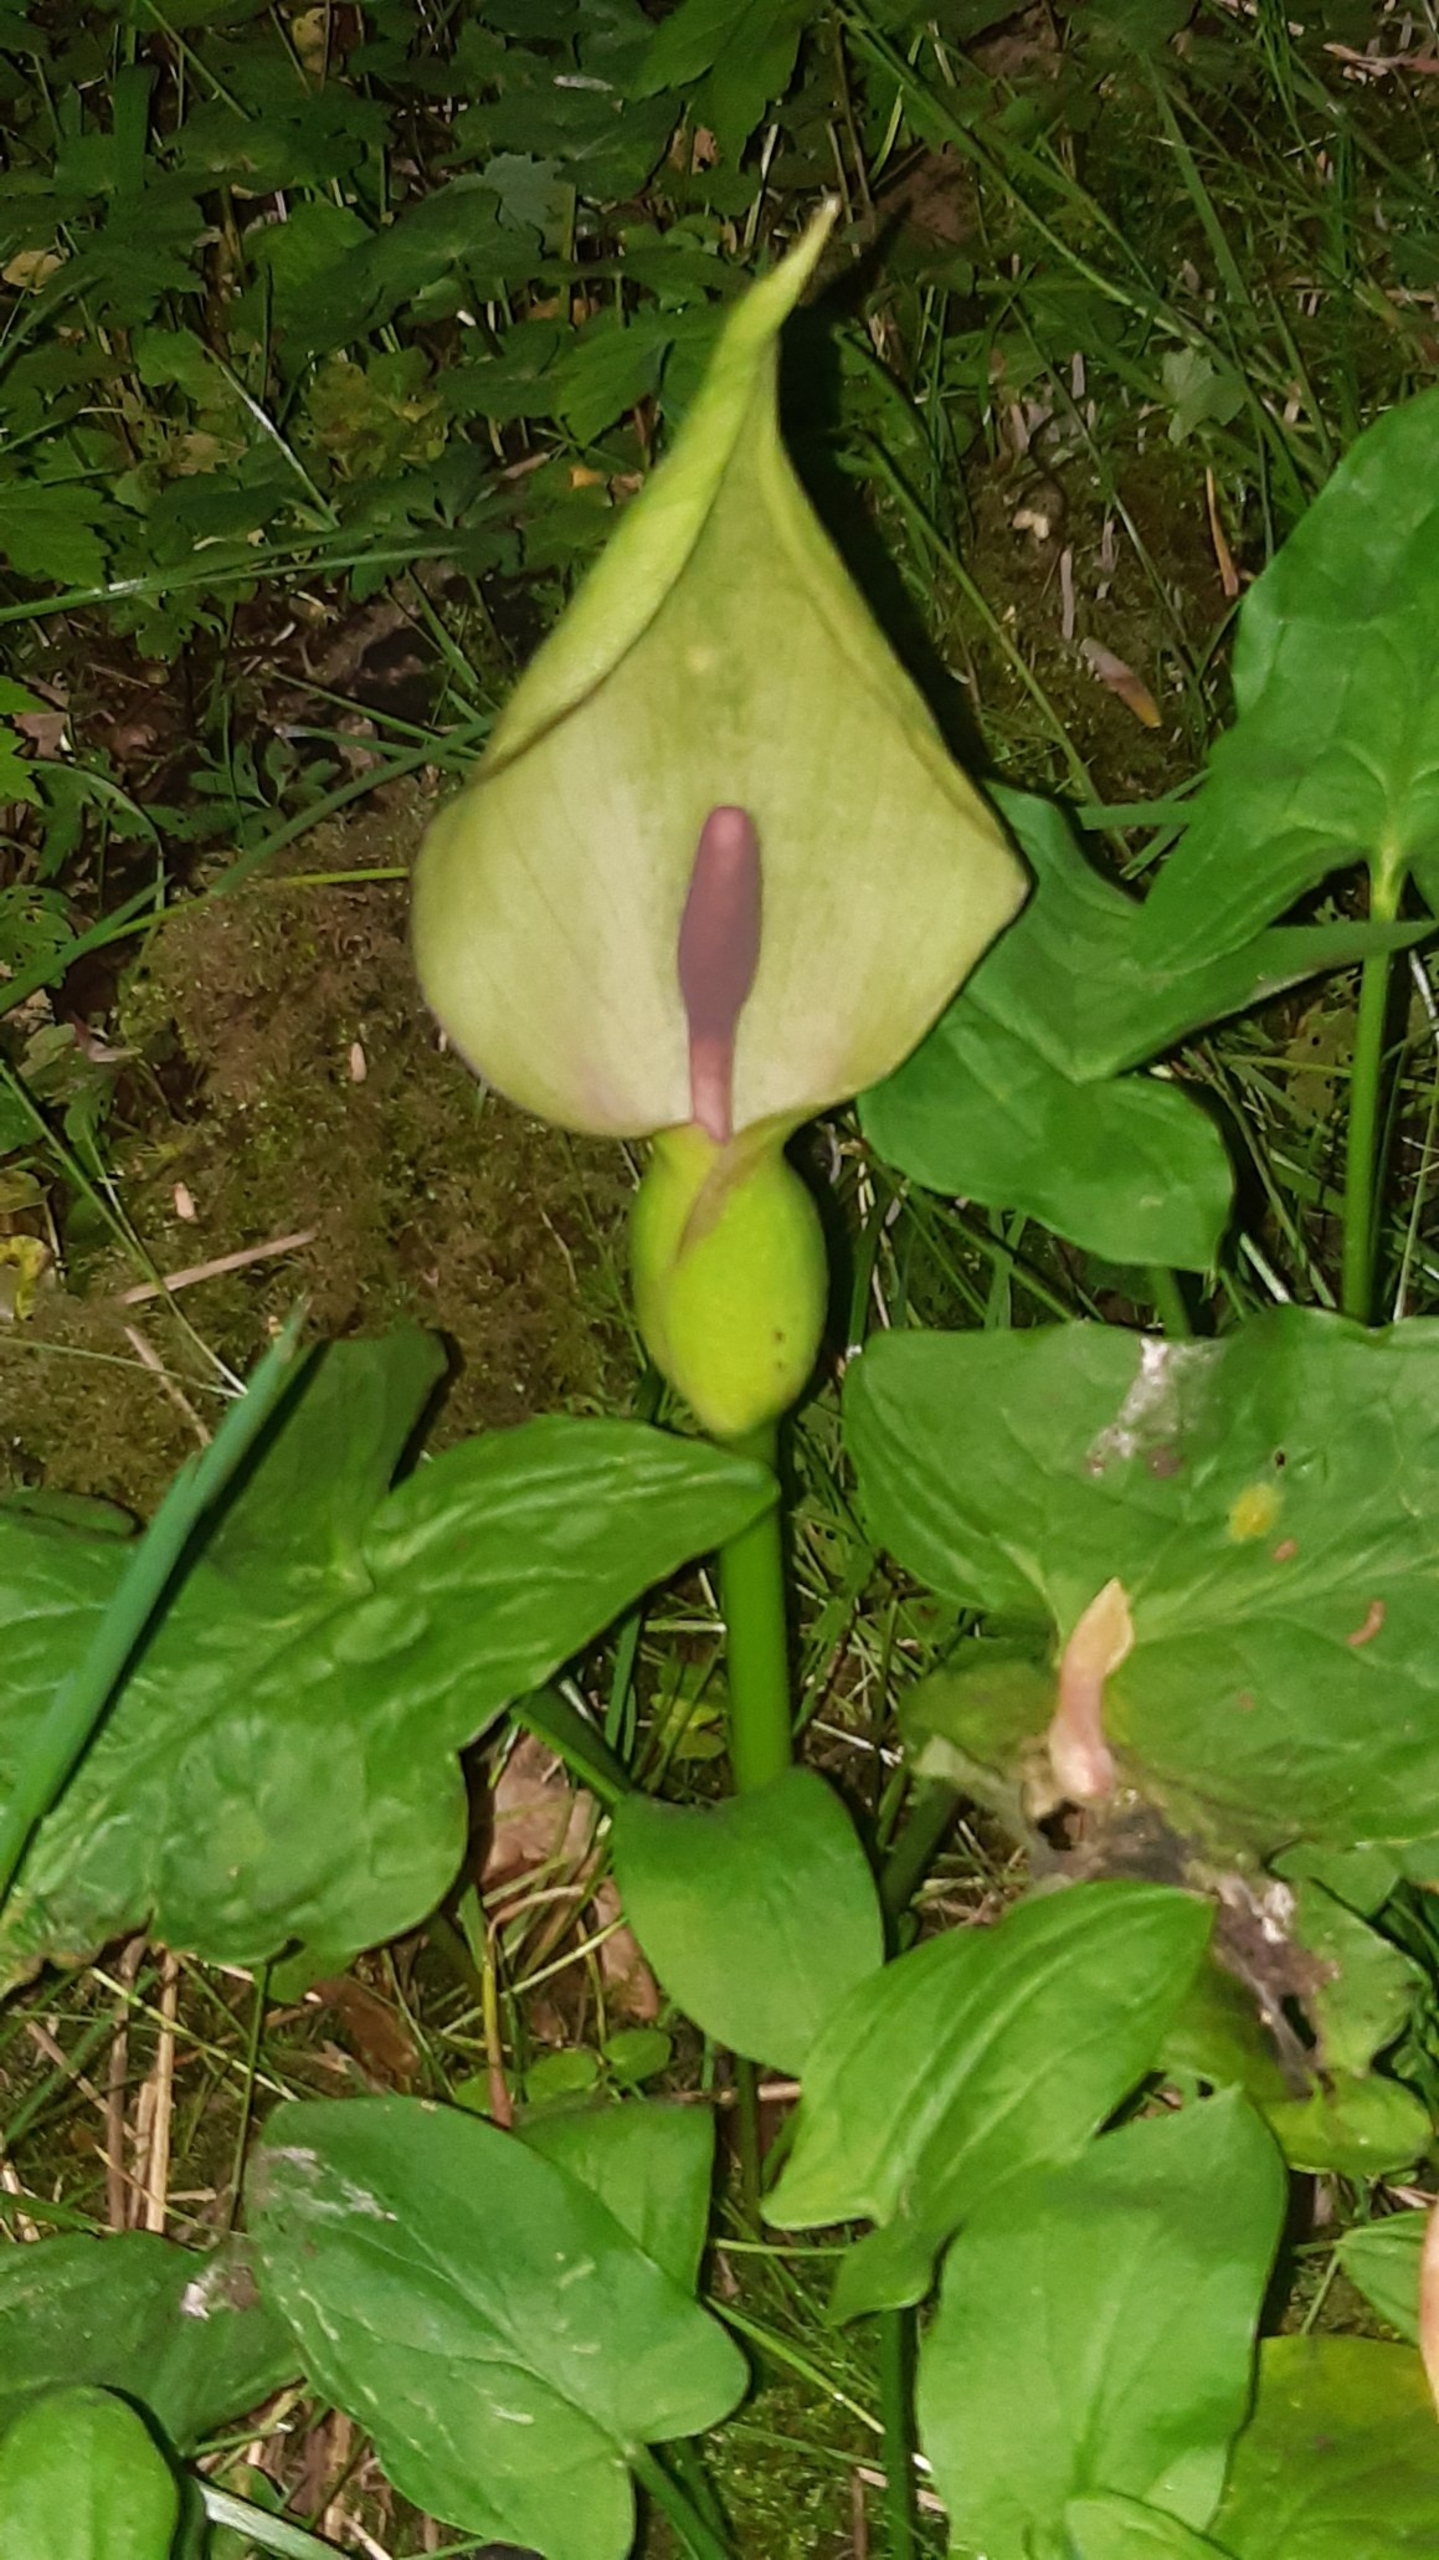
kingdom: Plantae
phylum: Tracheophyta
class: Liliopsida
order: Alismatales
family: Araceae
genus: Arum
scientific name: Arum maculatum
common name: Plettet arum
